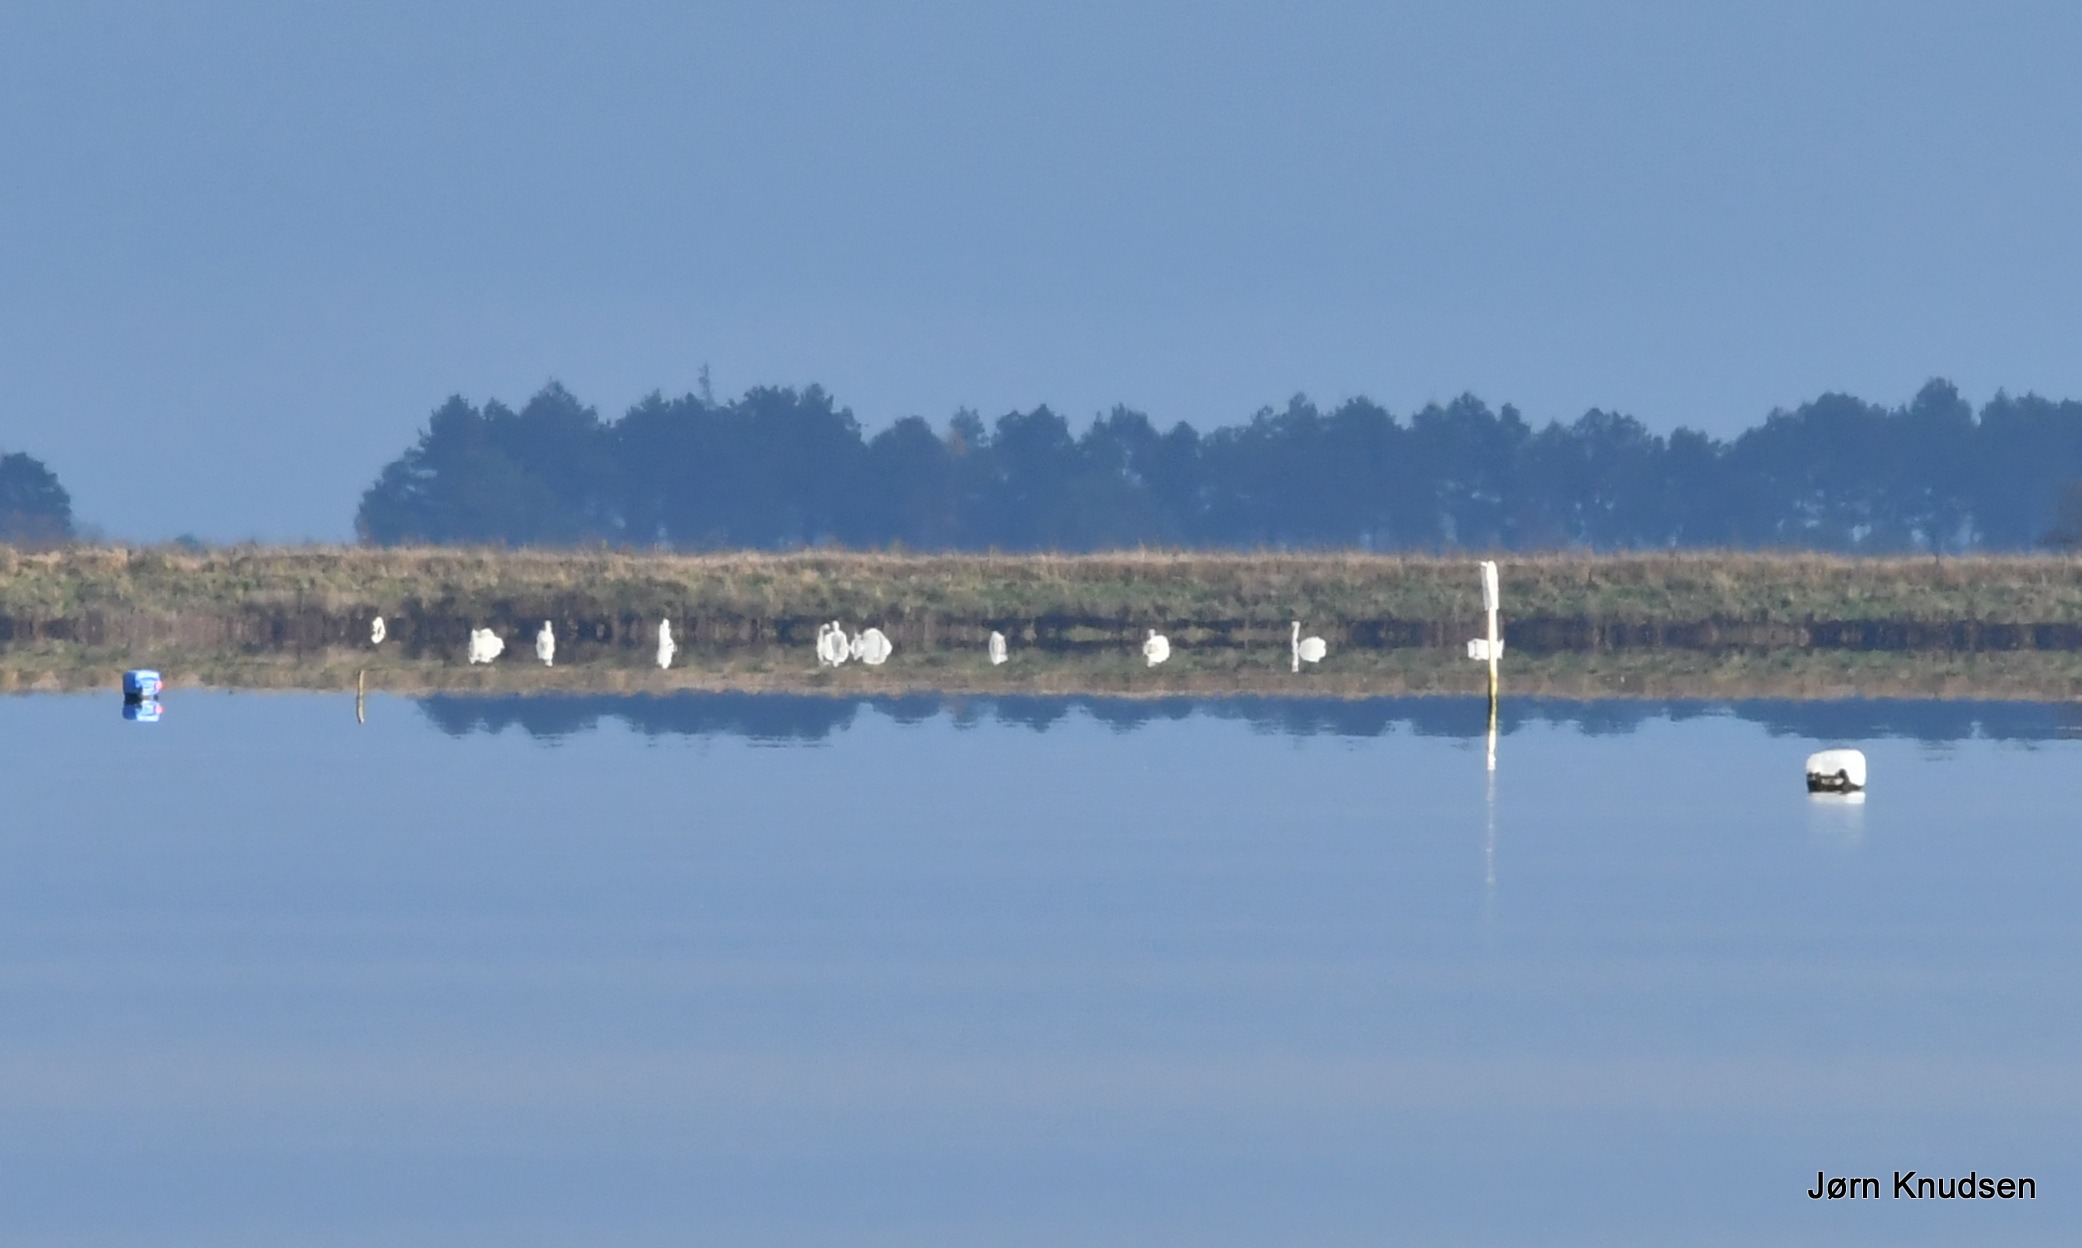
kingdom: Animalia
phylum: Chordata
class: Aves
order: Anseriformes
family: Anatidae
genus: Cygnus
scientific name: Cygnus olor
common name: Knopsvane
